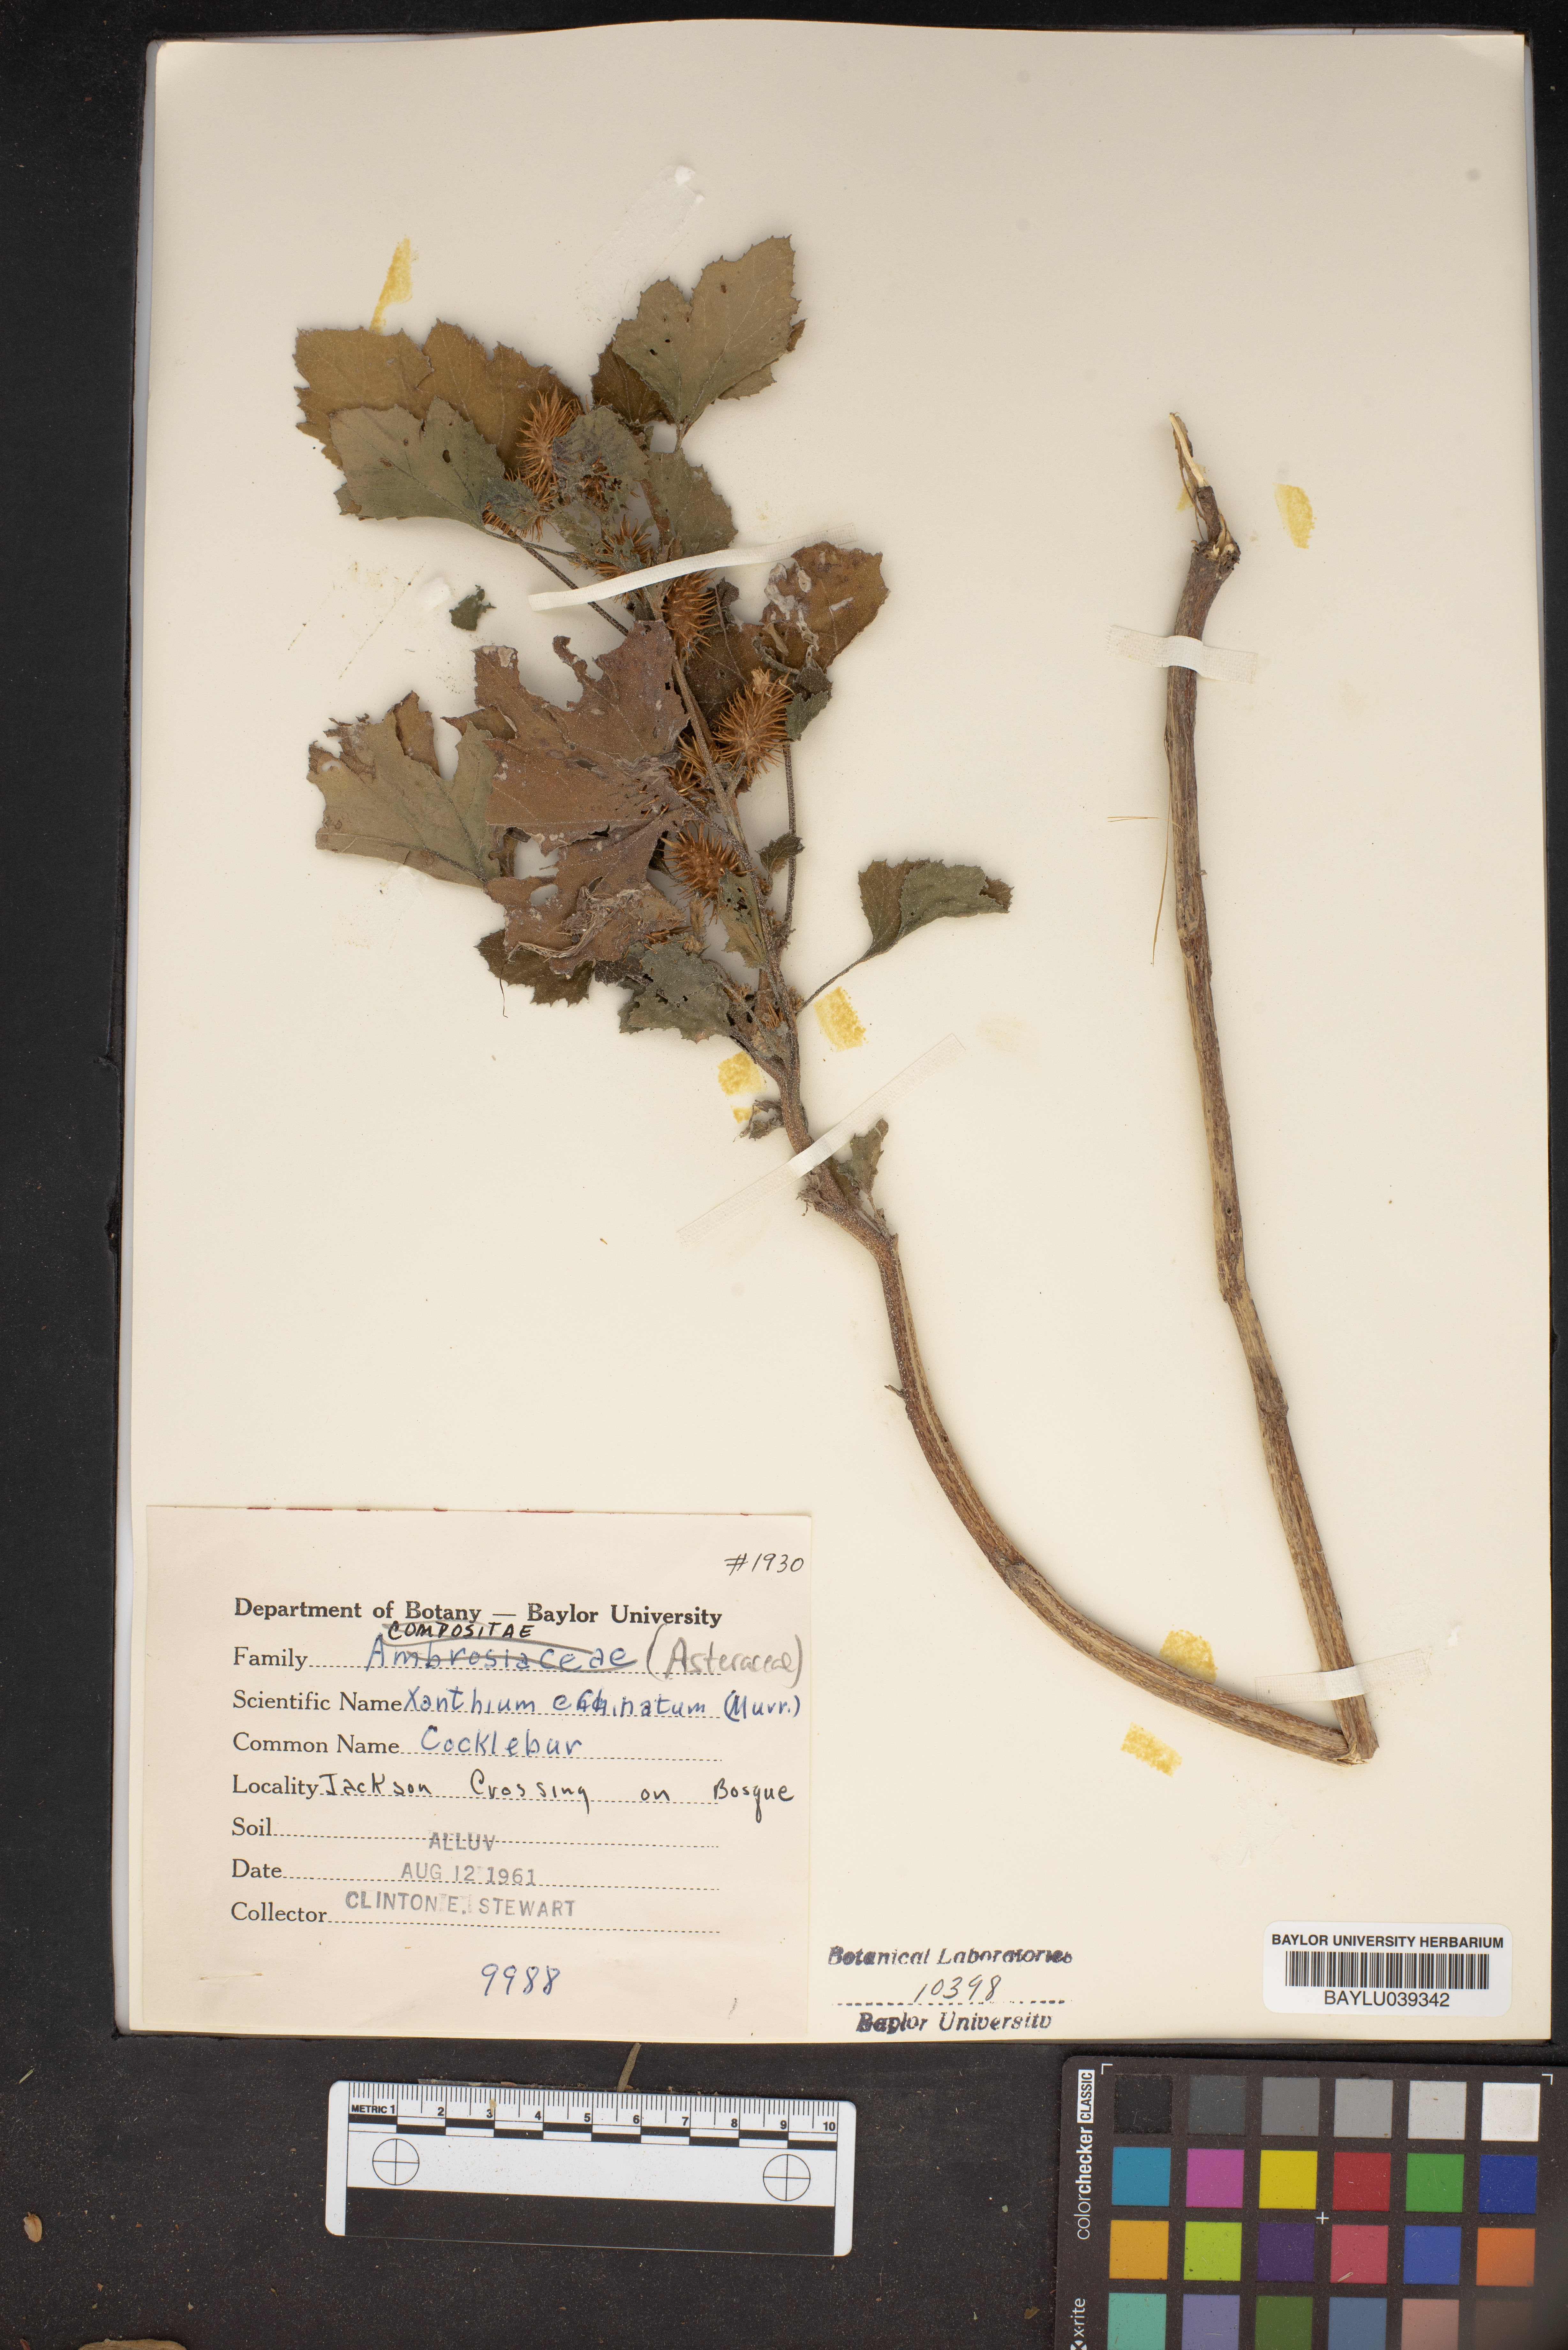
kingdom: Plantae
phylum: Tracheophyta
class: Magnoliopsida
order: Asterales
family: Asteraceae
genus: Xanthium
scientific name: Xanthium orientale
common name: Californian burr
